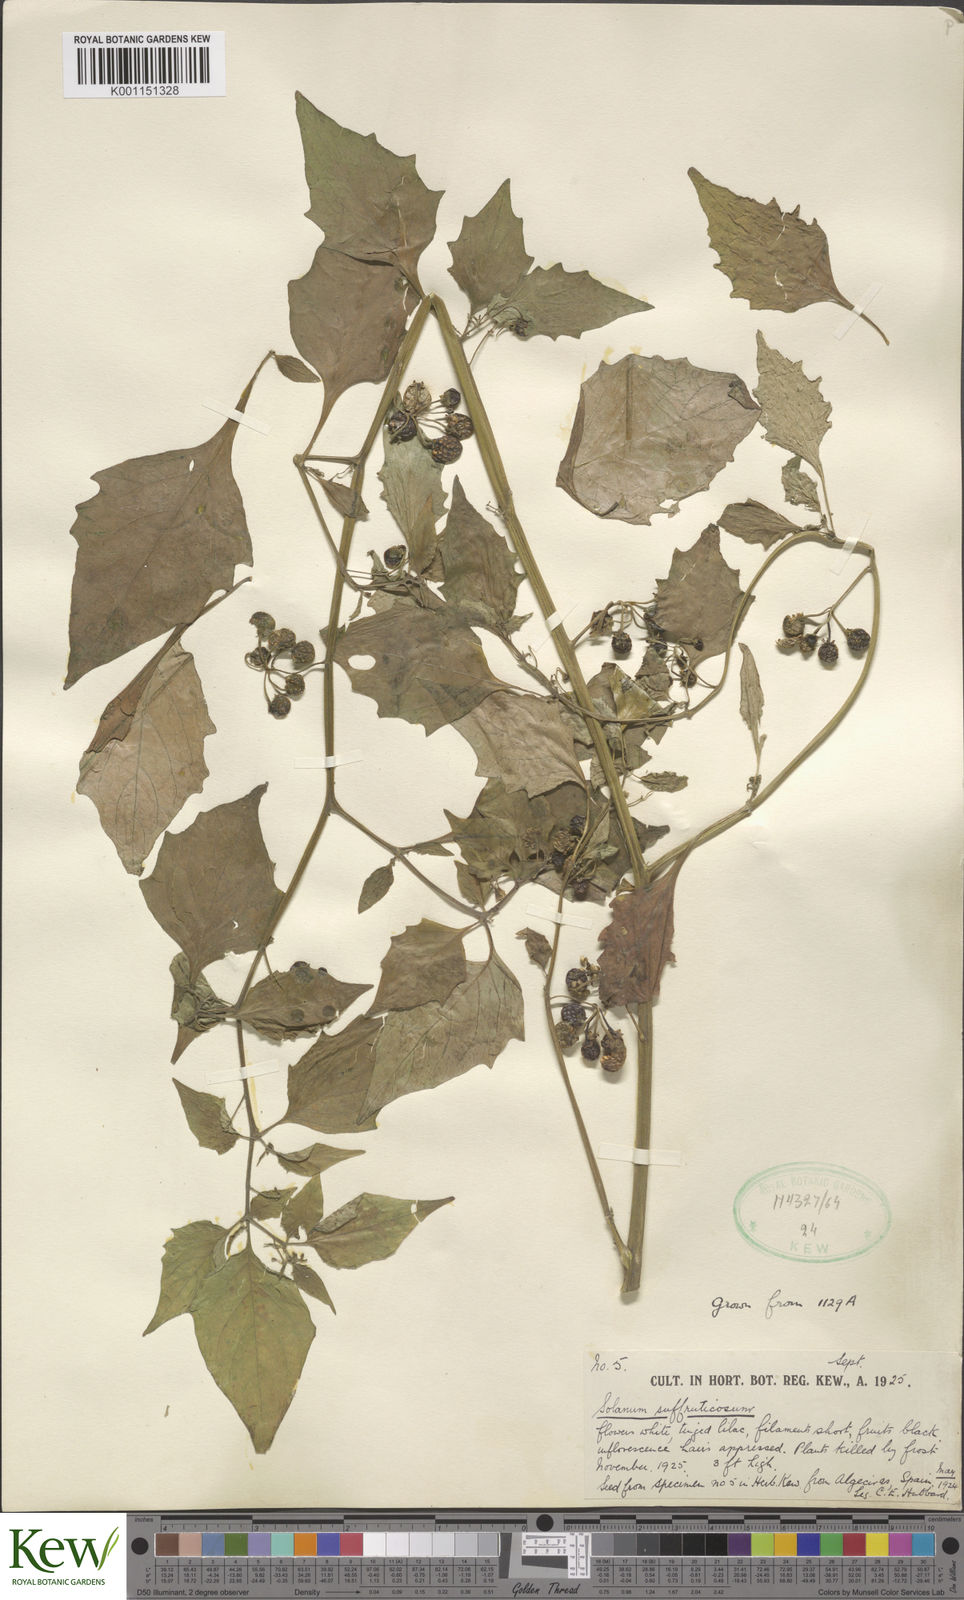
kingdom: Plantae
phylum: Tracheophyta
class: Magnoliopsida
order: Solanales
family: Solanaceae
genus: Solanum
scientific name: Solanum nigrum
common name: Black nightshade
